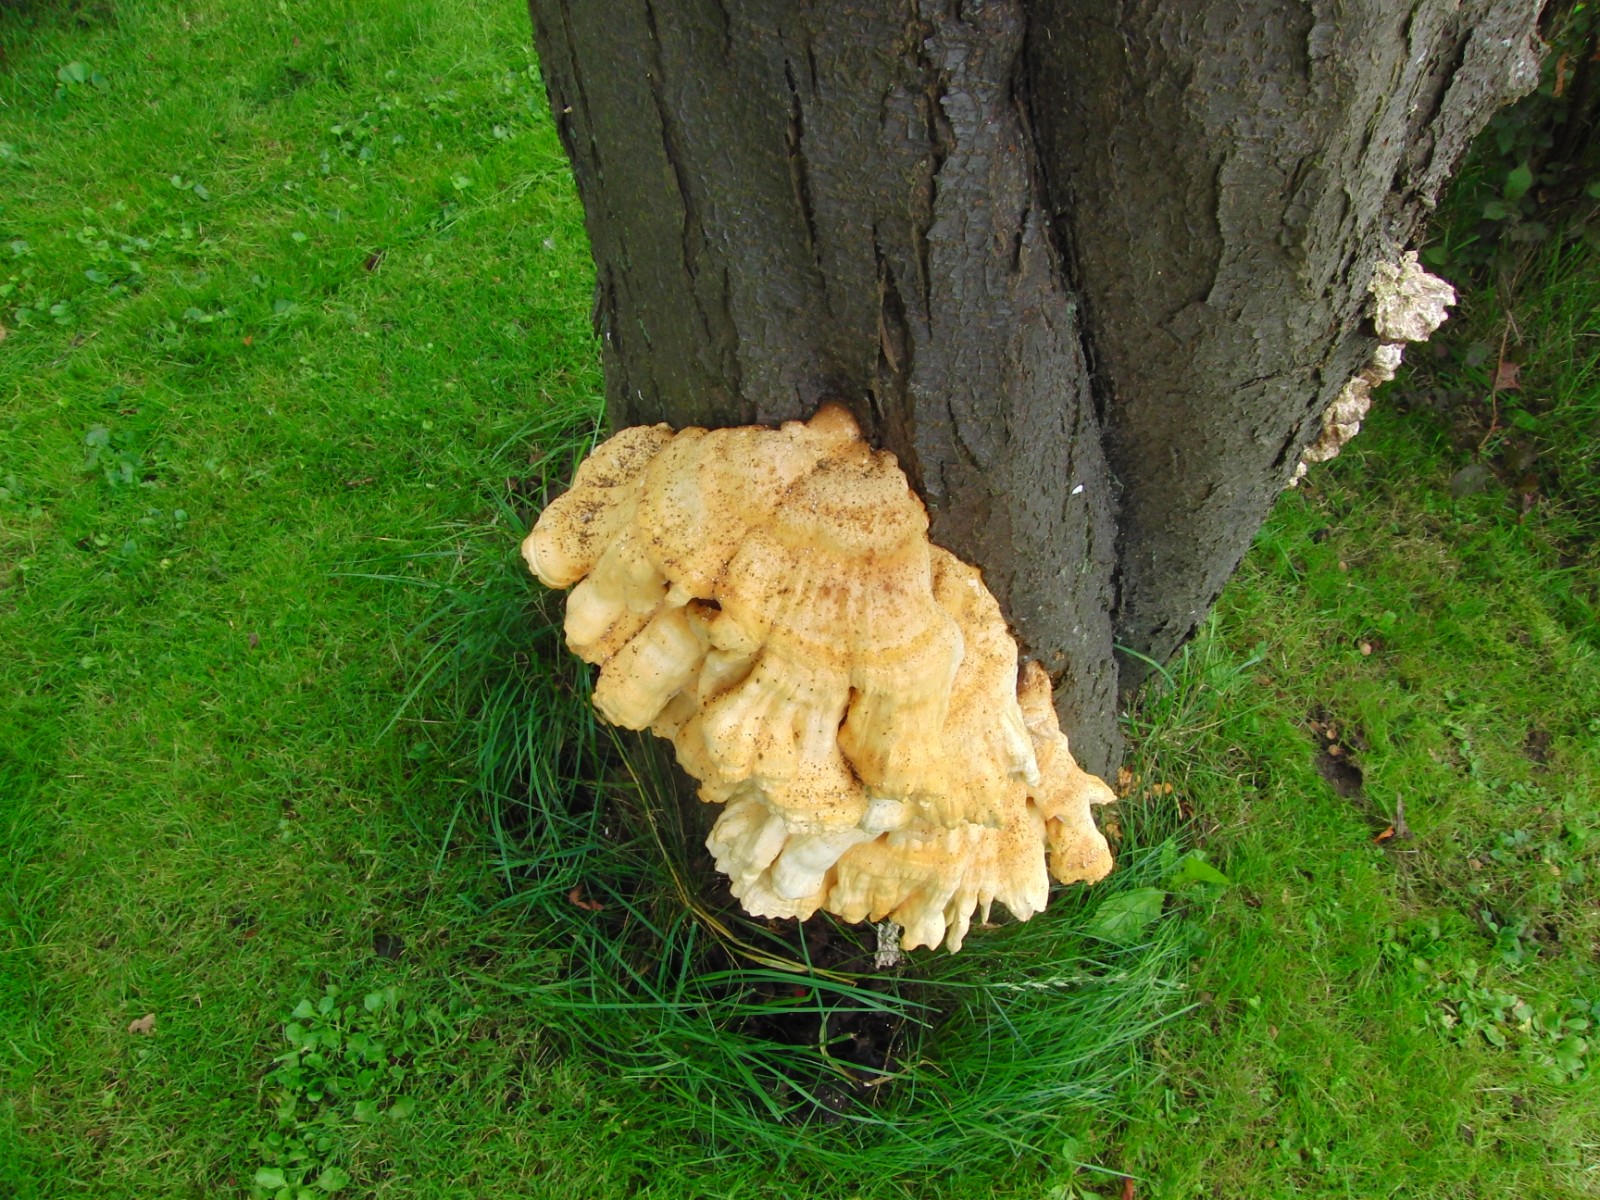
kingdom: Fungi
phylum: Basidiomycota
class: Agaricomycetes
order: Polyporales
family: Laetiporaceae
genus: Laetiporus
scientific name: Laetiporus sulphureus
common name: svovlporesvamp
